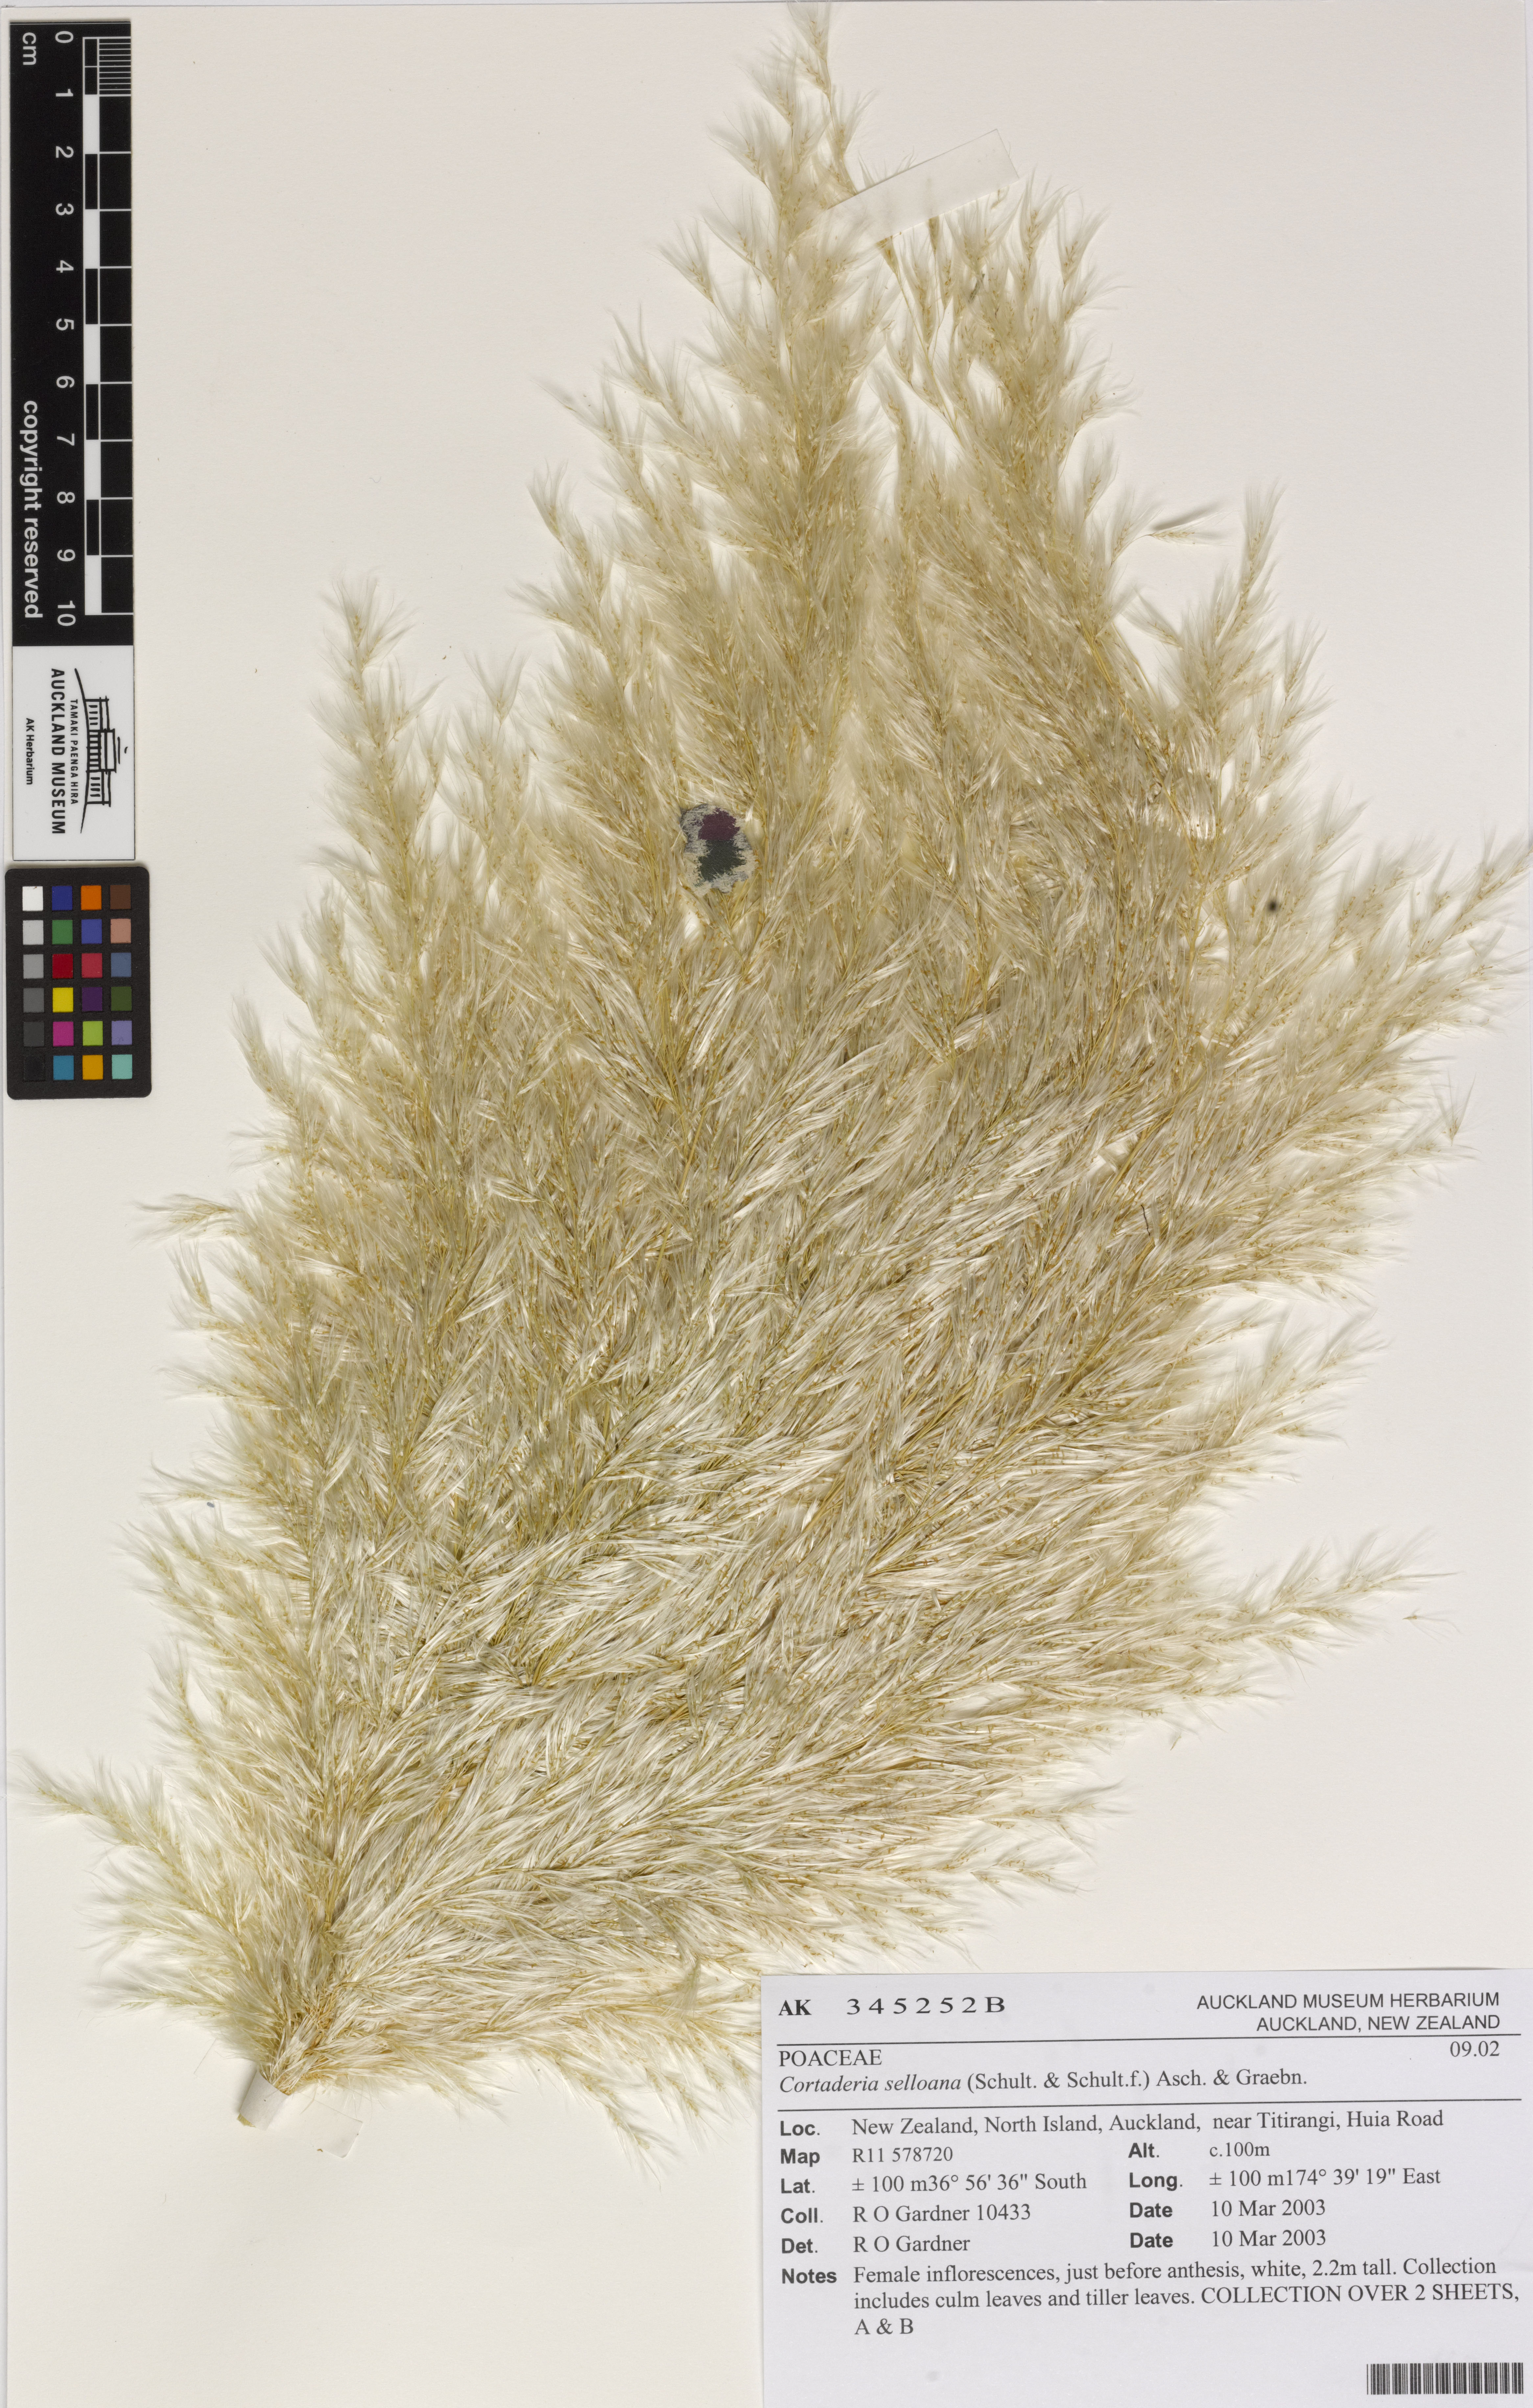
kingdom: Plantae
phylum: Tracheophyta
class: Liliopsida
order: Poales
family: Poaceae
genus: Cortaderia
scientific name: Cortaderia selloana
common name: Uruguayan pampas grass
